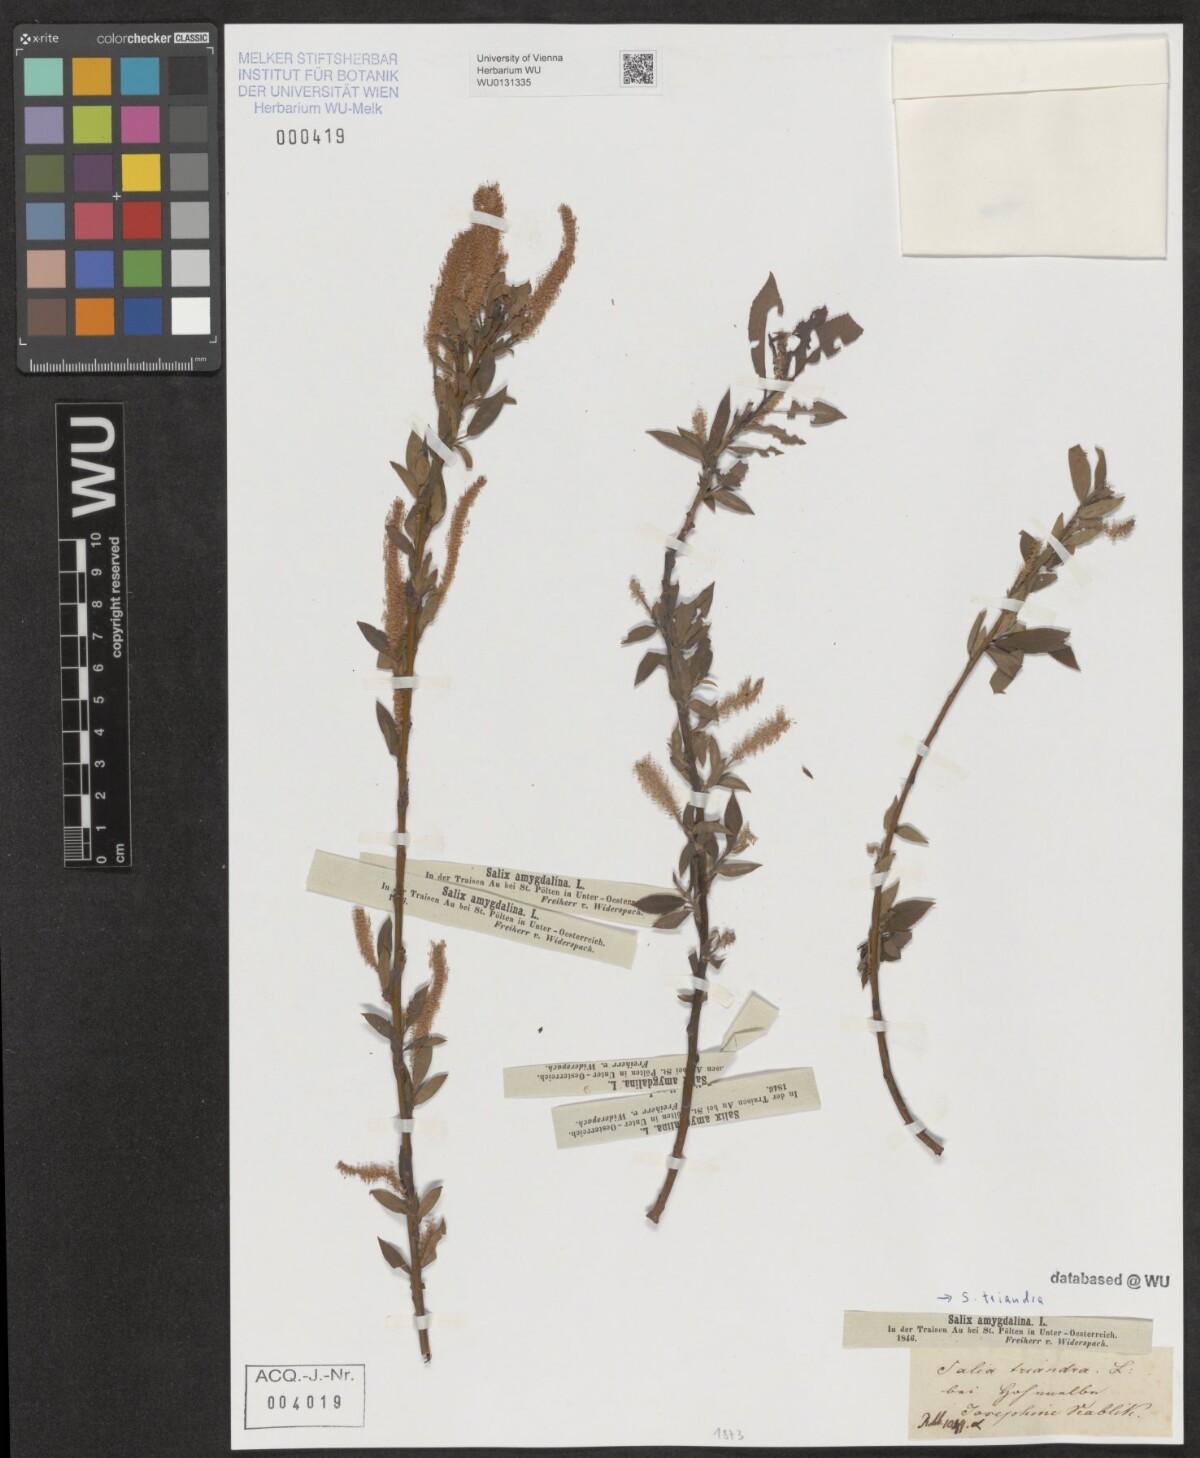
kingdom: Plantae
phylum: Tracheophyta
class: Magnoliopsida
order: Malpighiales
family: Salicaceae
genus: Salix
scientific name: Salix triandra
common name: Almond willow
